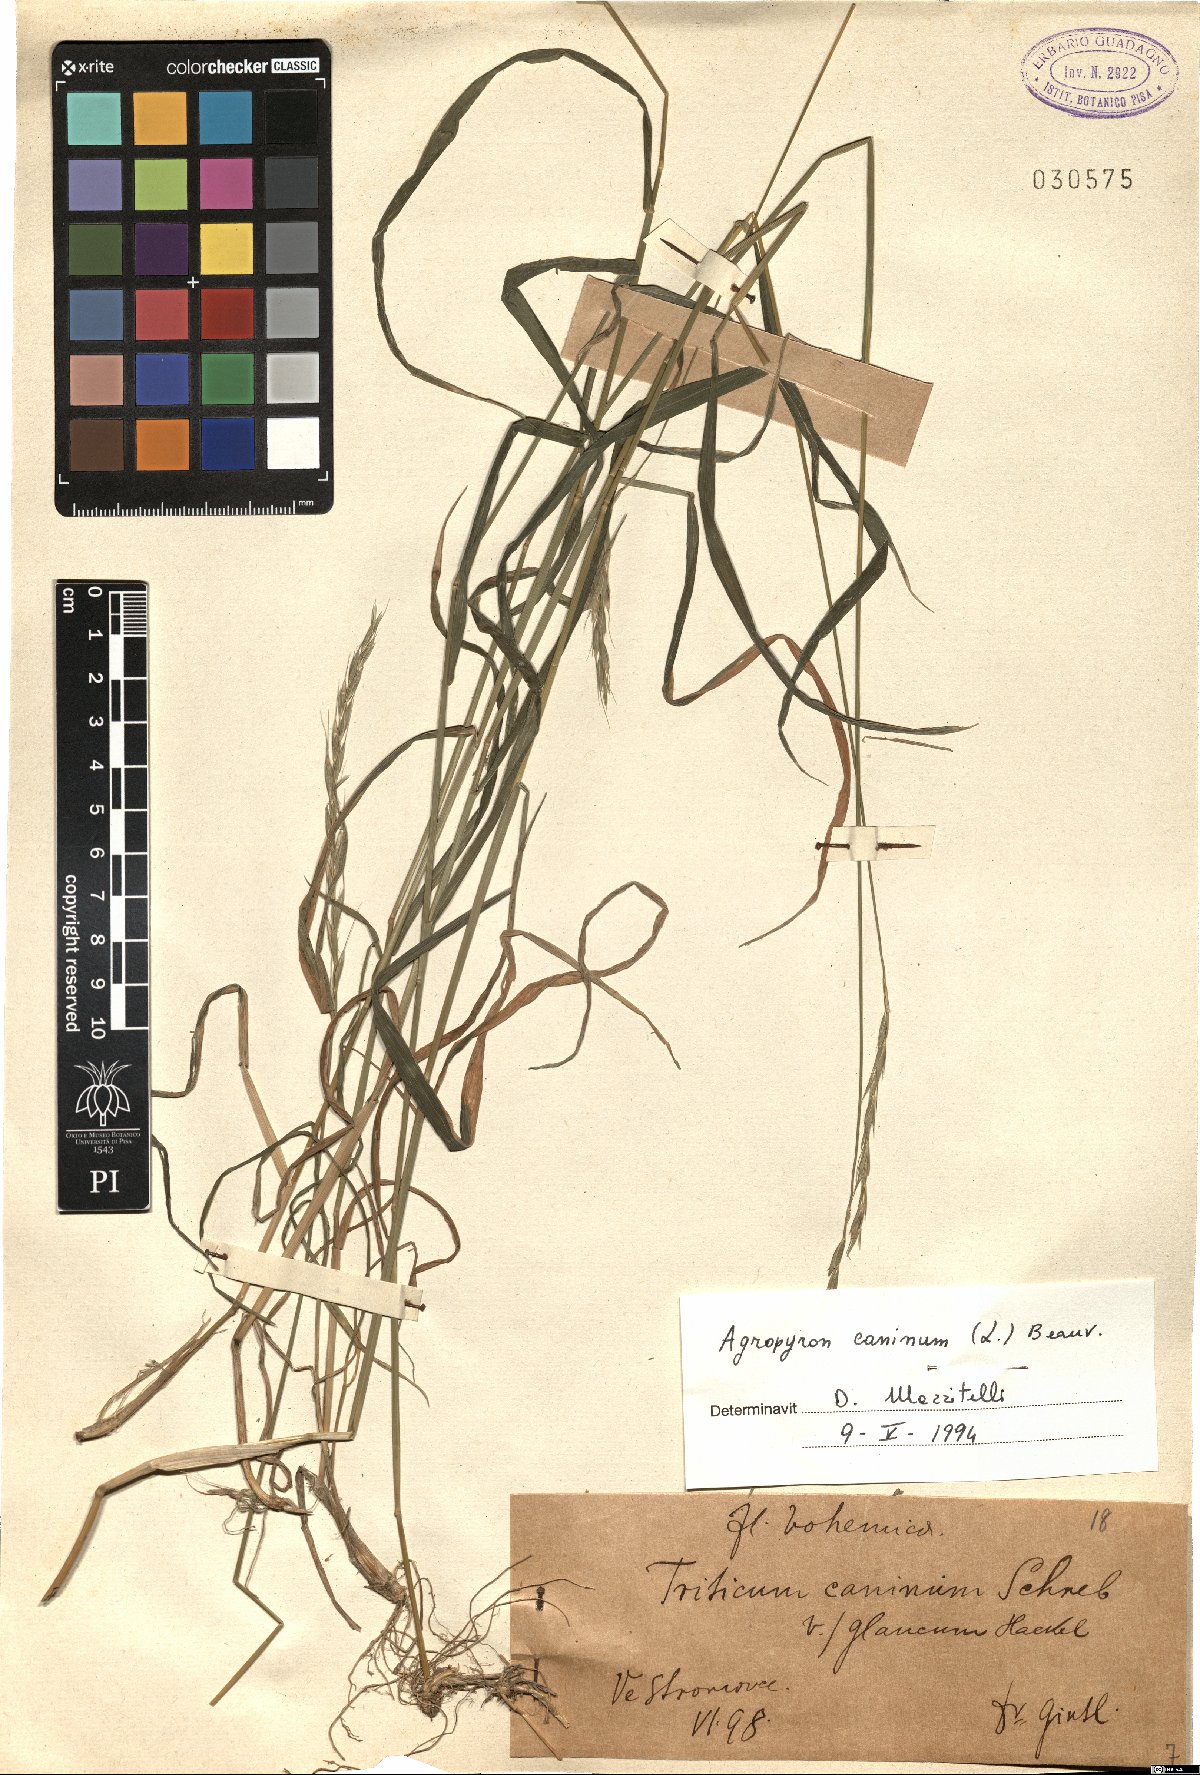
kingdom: Plantae
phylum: Tracheophyta
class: Liliopsida
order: Poales
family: Poaceae
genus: Elymus
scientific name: Elymus caninus
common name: Bearded couch
